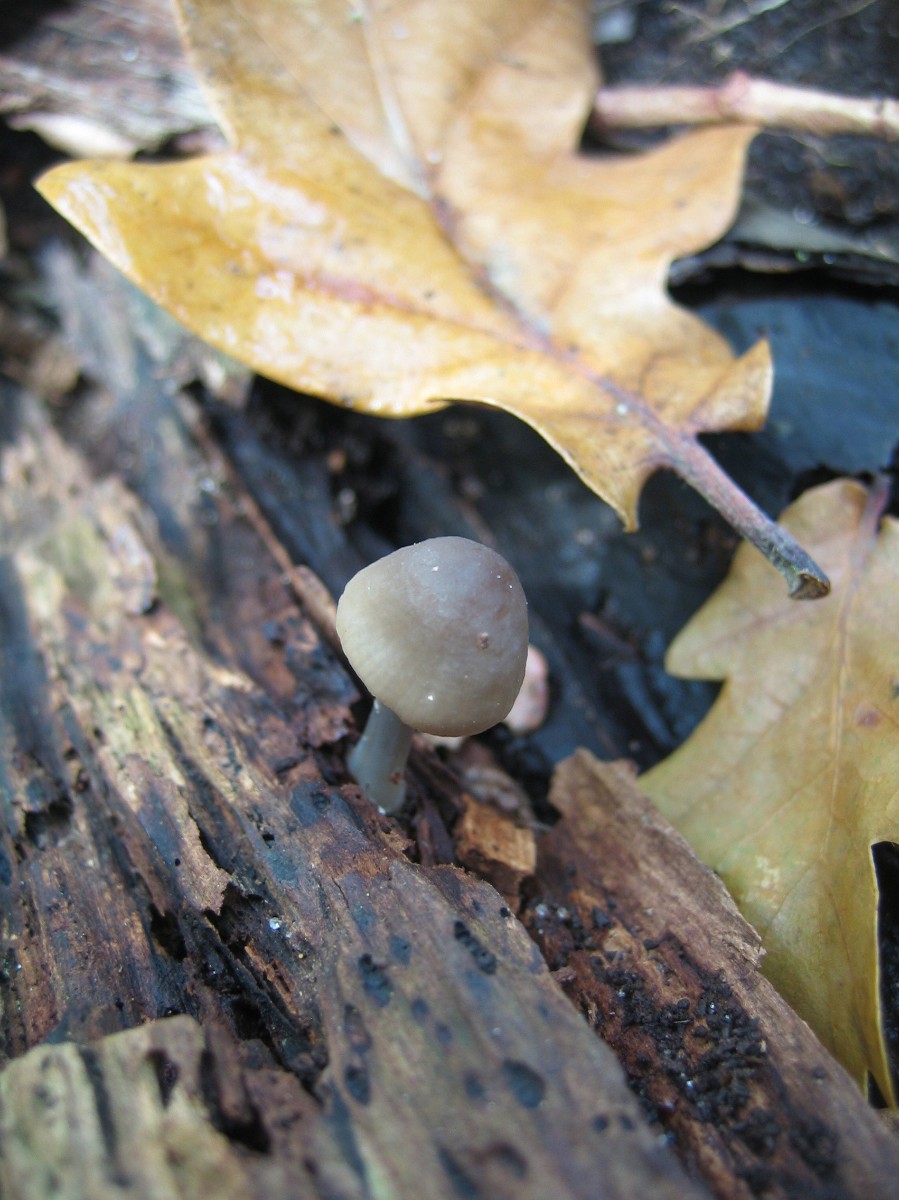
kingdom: Fungi
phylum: Basidiomycota
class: Agaricomycetes
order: Agaricales
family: Mycenaceae
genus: Mycena
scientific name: Mycena galericulata
